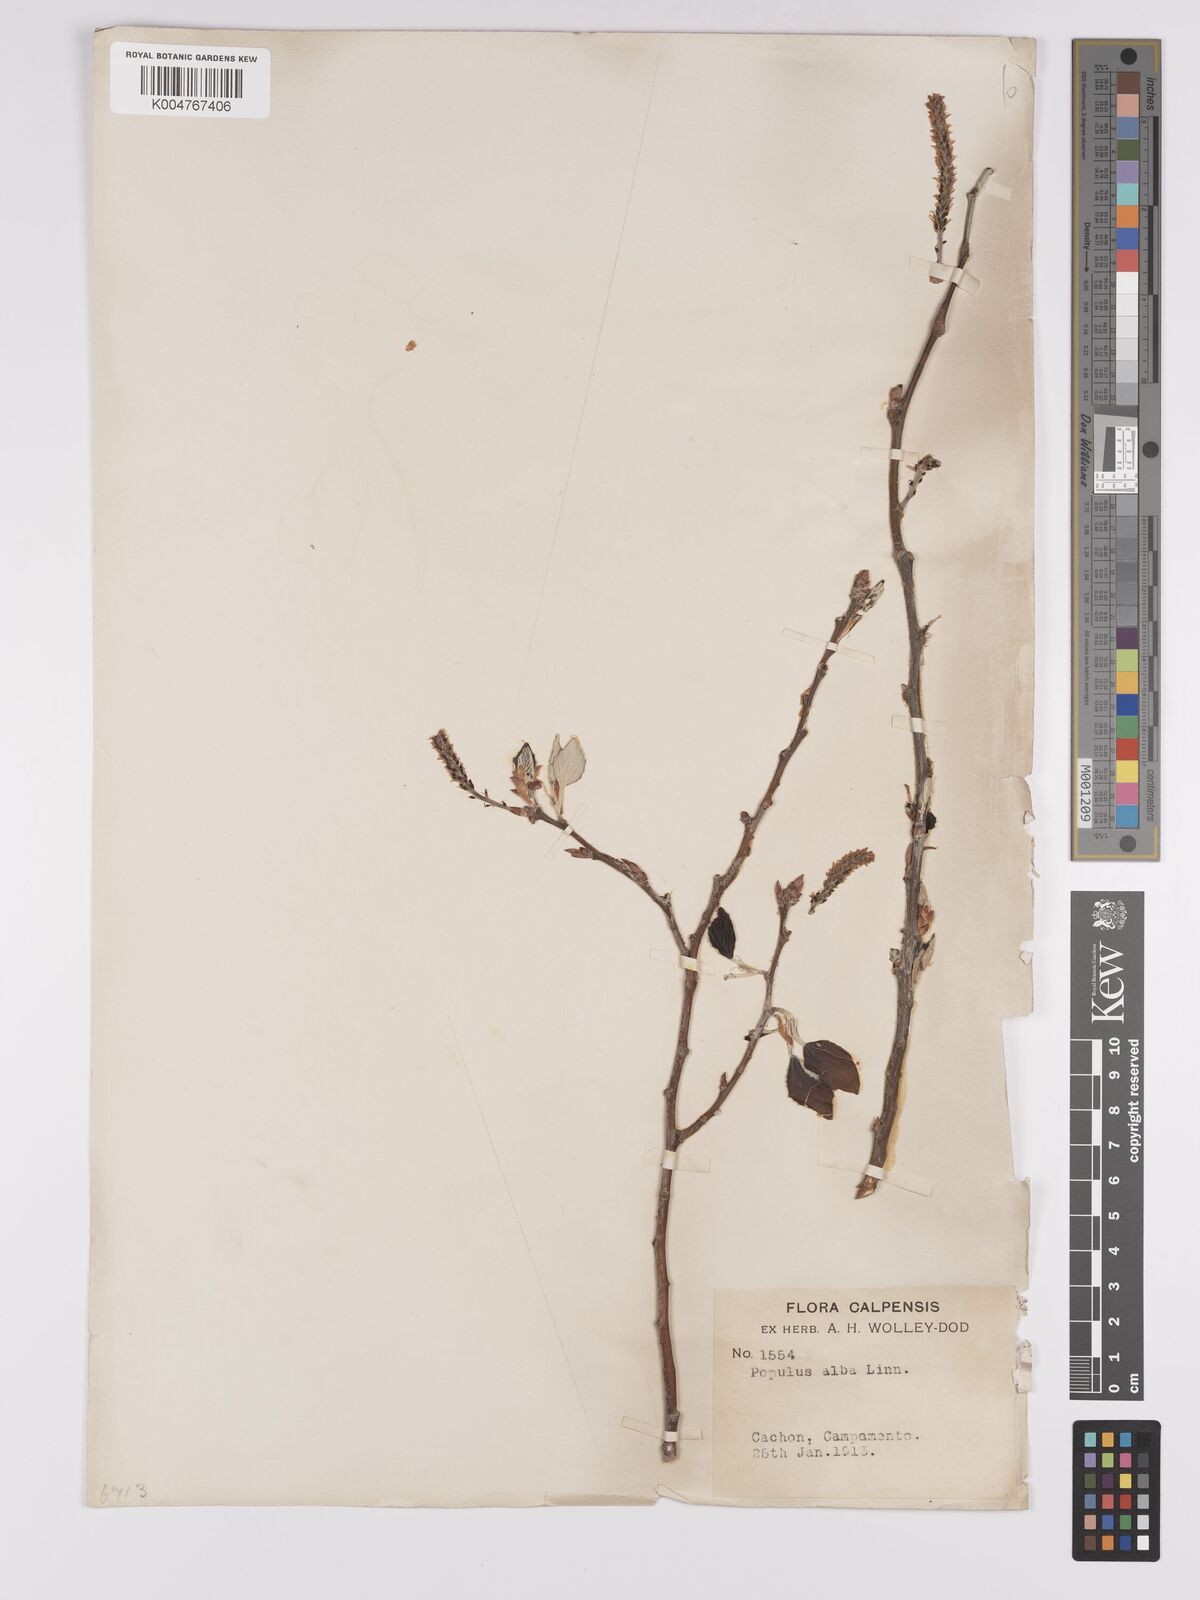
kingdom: Plantae
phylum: Tracheophyta
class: Magnoliopsida
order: Malpighiales
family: Salicaceae
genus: Populus
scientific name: Populus alba
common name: White poplar
